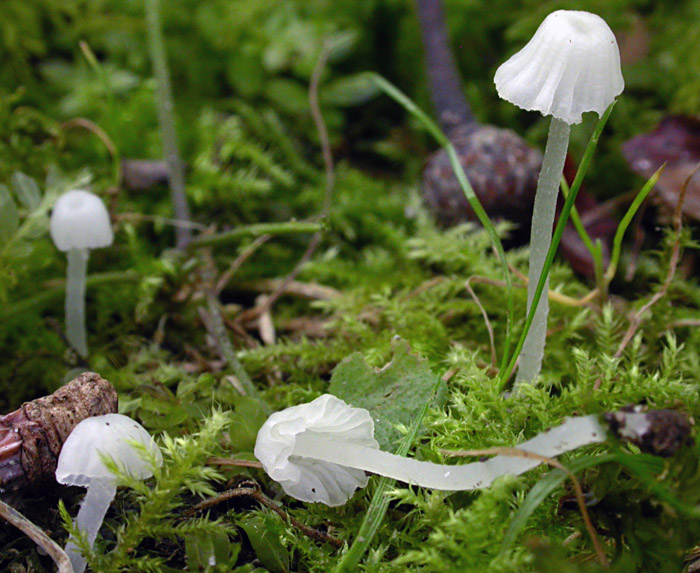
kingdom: Fungi
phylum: Basidiomycota
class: Agaricomycetes
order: Agaricales
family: Tricholomataceae
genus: Delicatula
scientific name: Delicatula integrella
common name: slørhuesvamp
